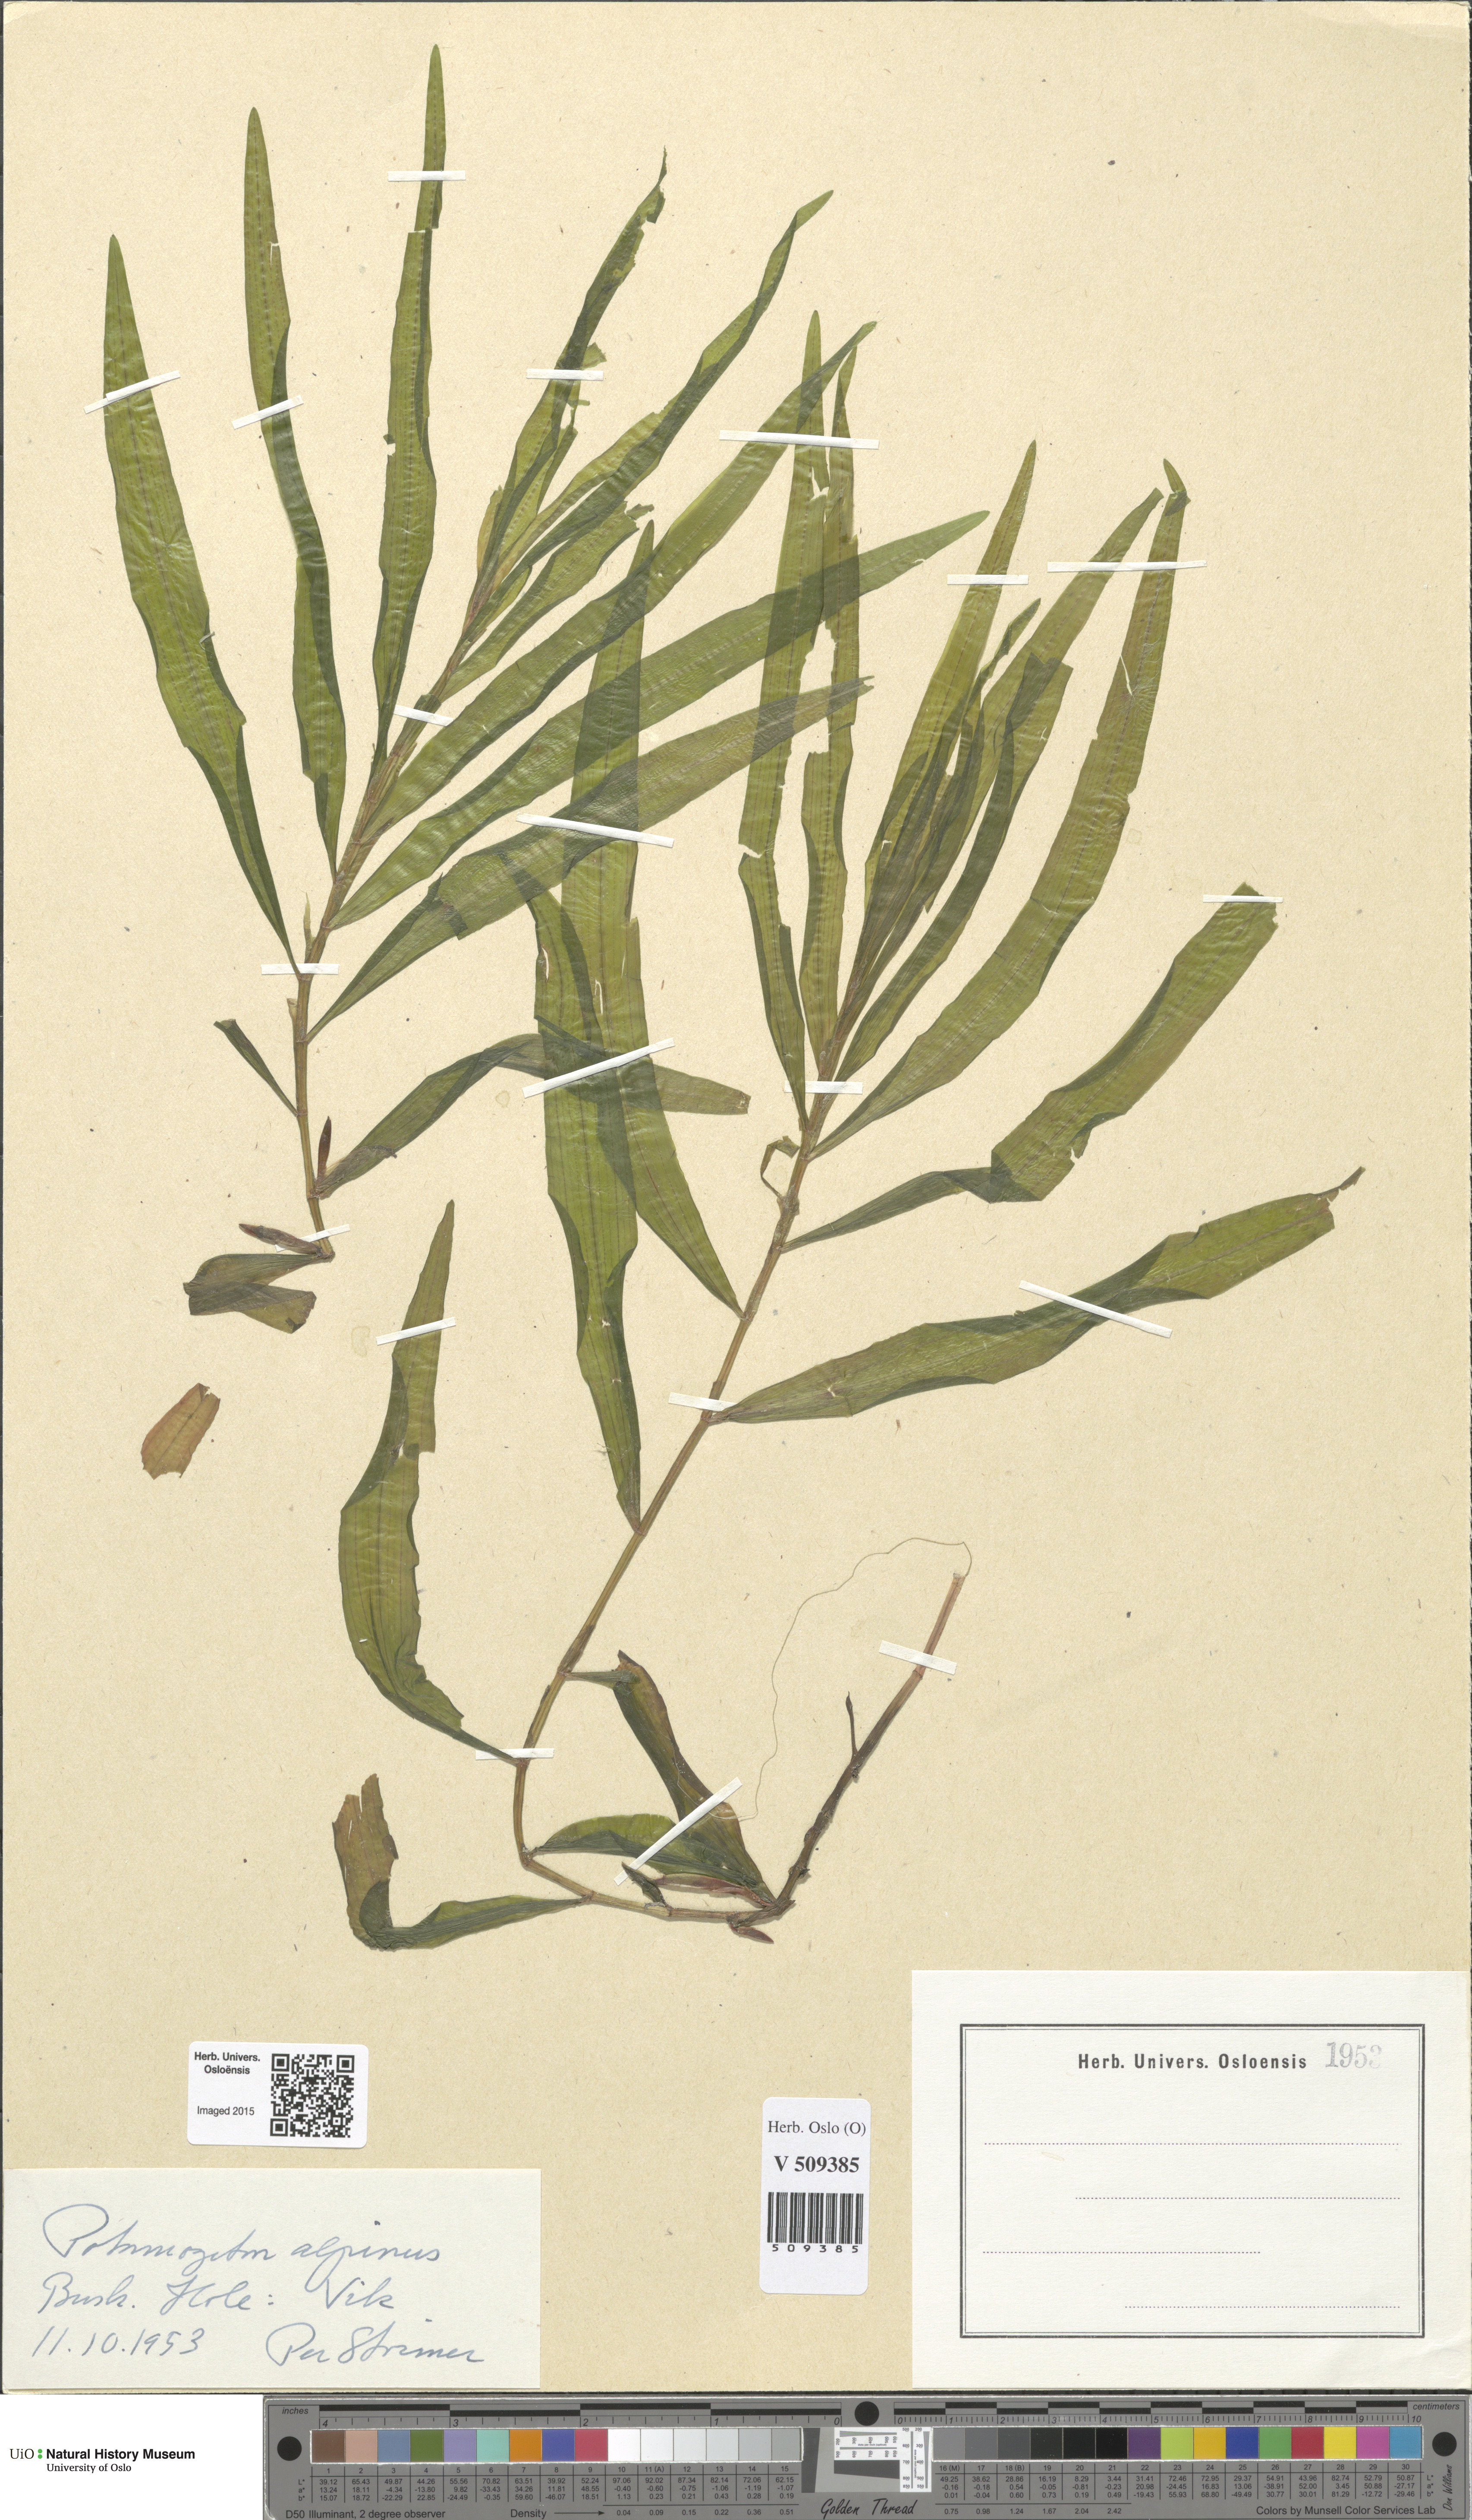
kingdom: Plantae
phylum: Tracheophyta
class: Liliopsida
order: Alismatales
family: Potamogetonaceae
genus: Potamogeton
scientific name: Potamogeton alpinus
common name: Red pondweed
